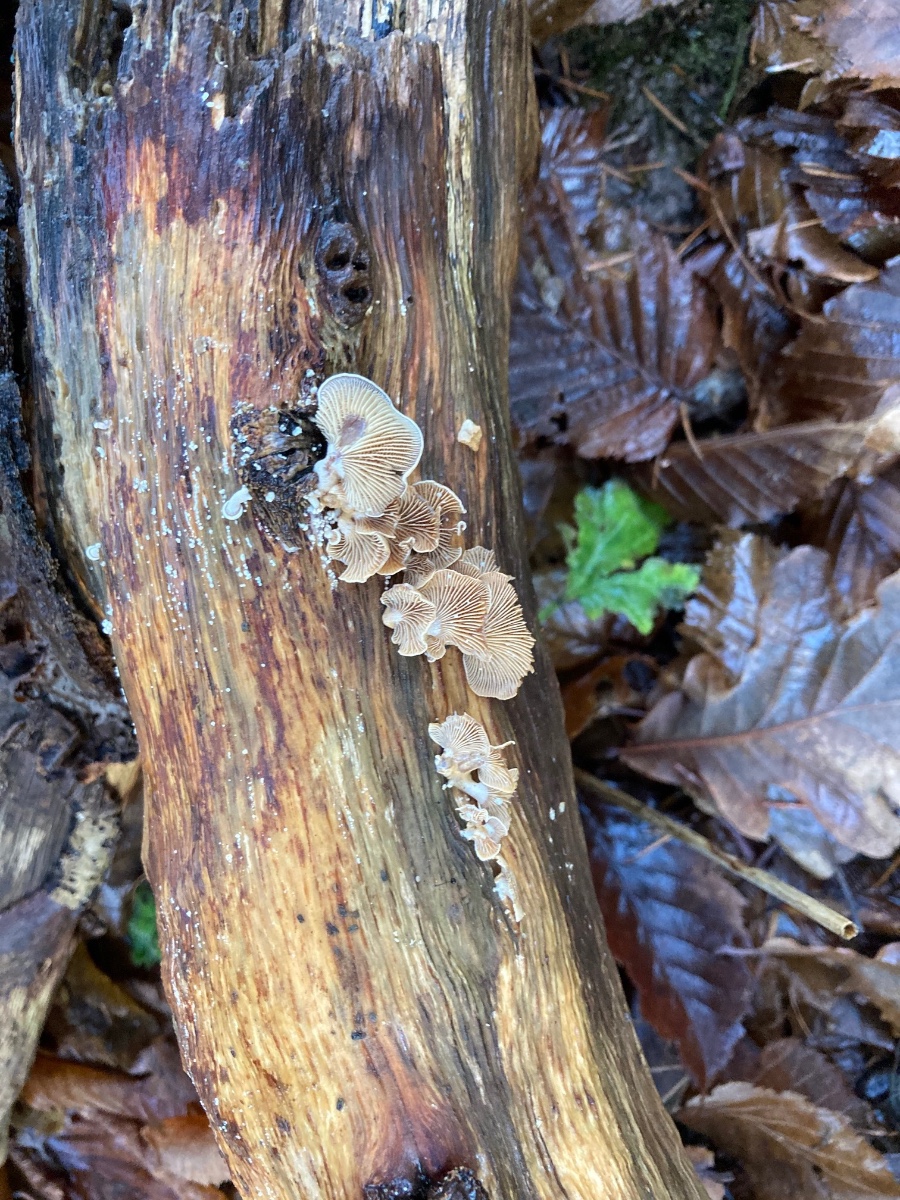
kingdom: Fungi
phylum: Basidiomycota
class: Agaricomycetes
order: Agaricales
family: Mycenaceae
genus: Panellus
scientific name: Panellus stipticus
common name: kliddet epaulethat
